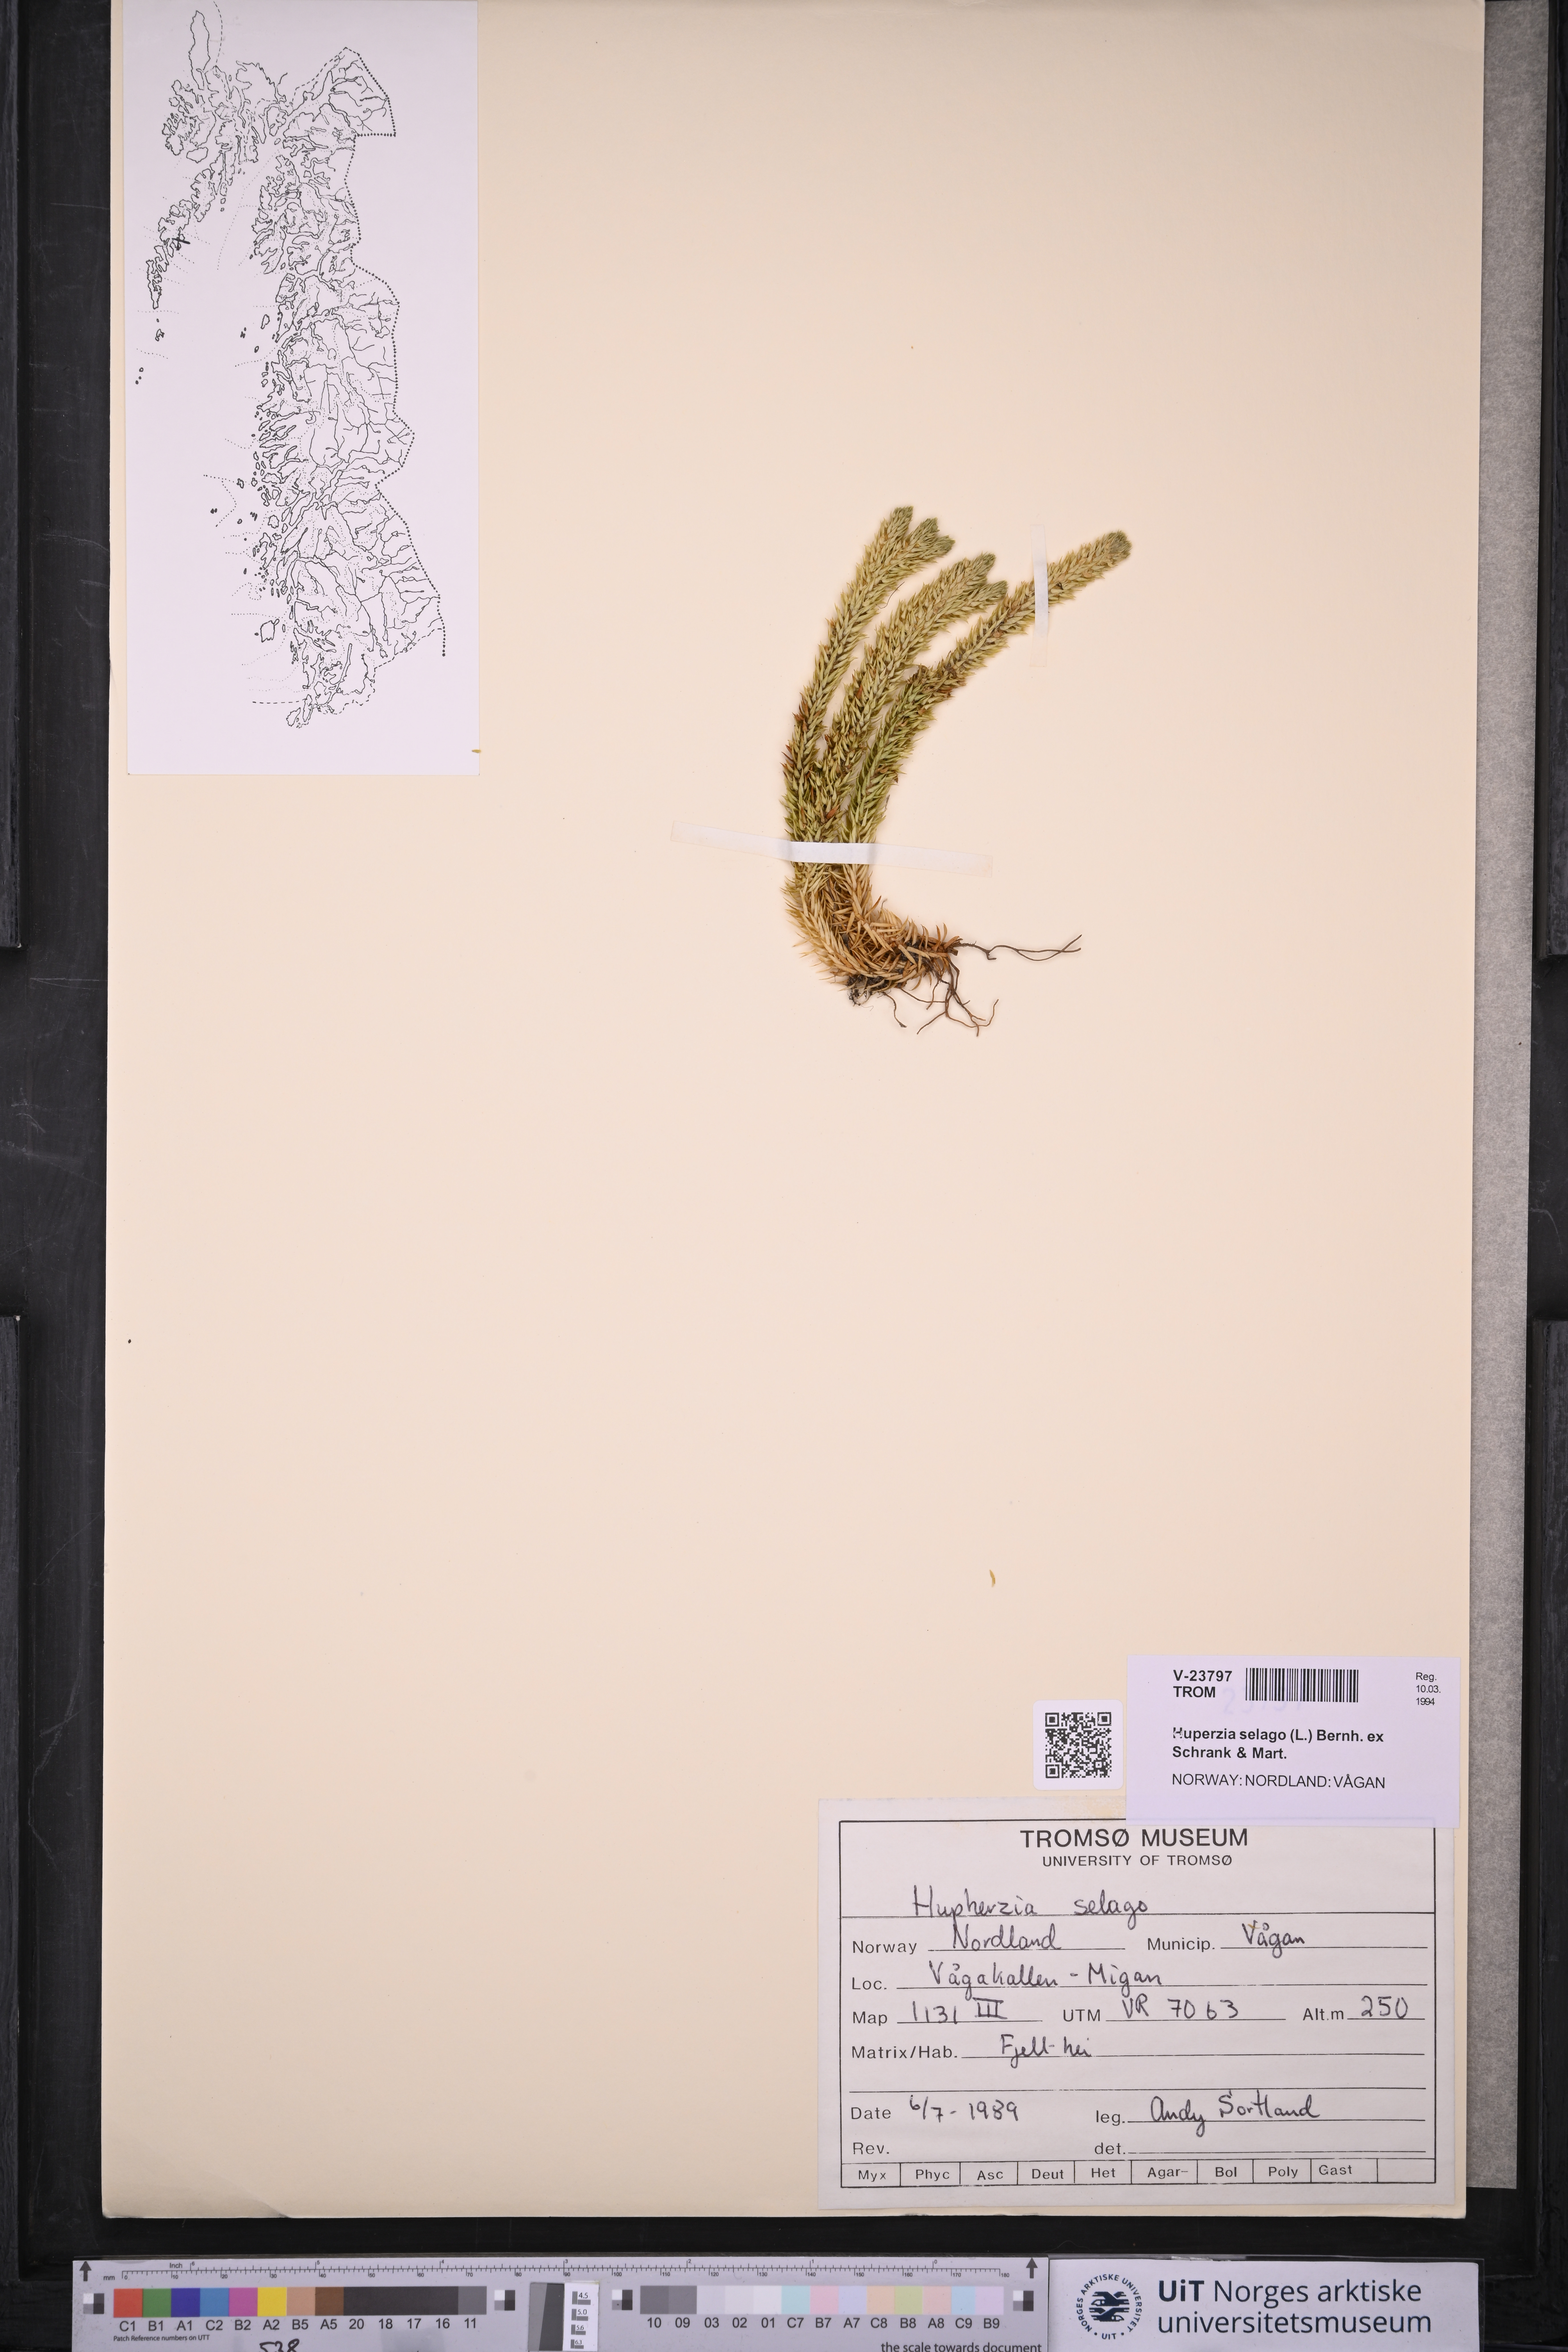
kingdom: Plantae
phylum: Tracheophyta
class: Lycopodiopsida
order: Lycopodiales
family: Lycopodiaceae
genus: Huperzia
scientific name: Huperzia selago
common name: Northern firmoss
